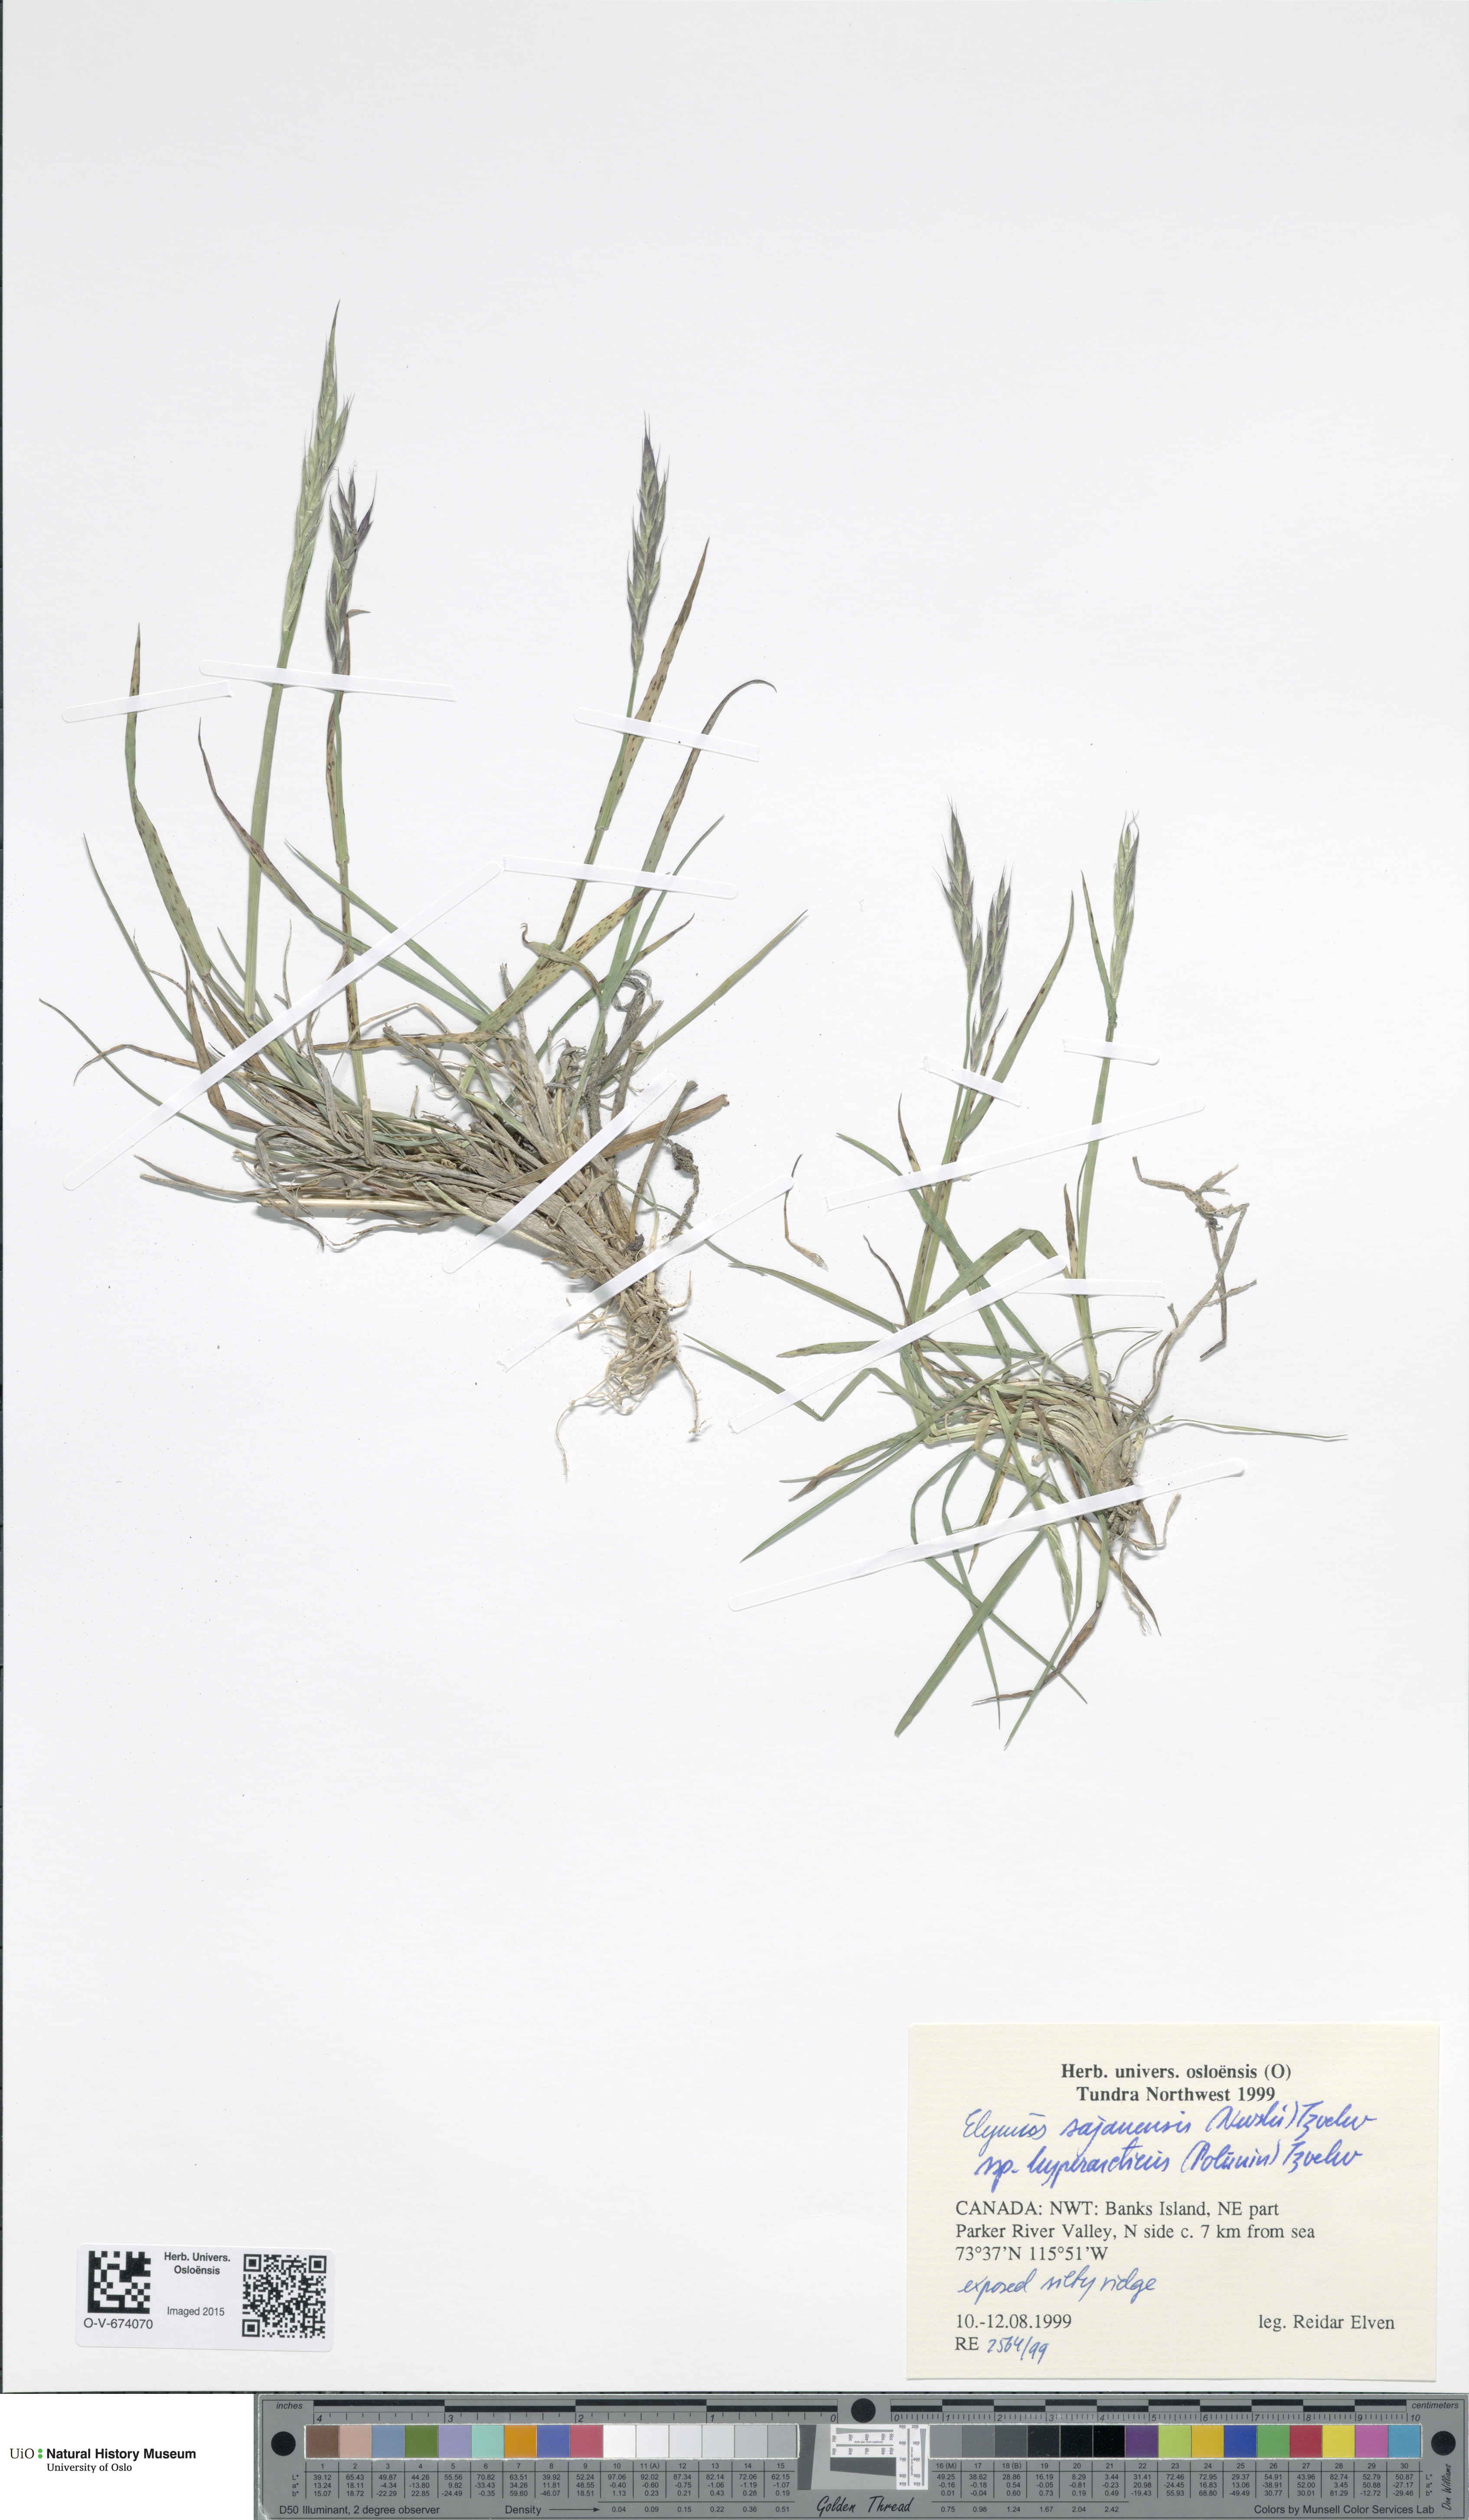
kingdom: Plantae
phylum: Tracheophyta
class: Liliopsida
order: Poales
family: Poaceae
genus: Elymus
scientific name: Elymus sajanensis
